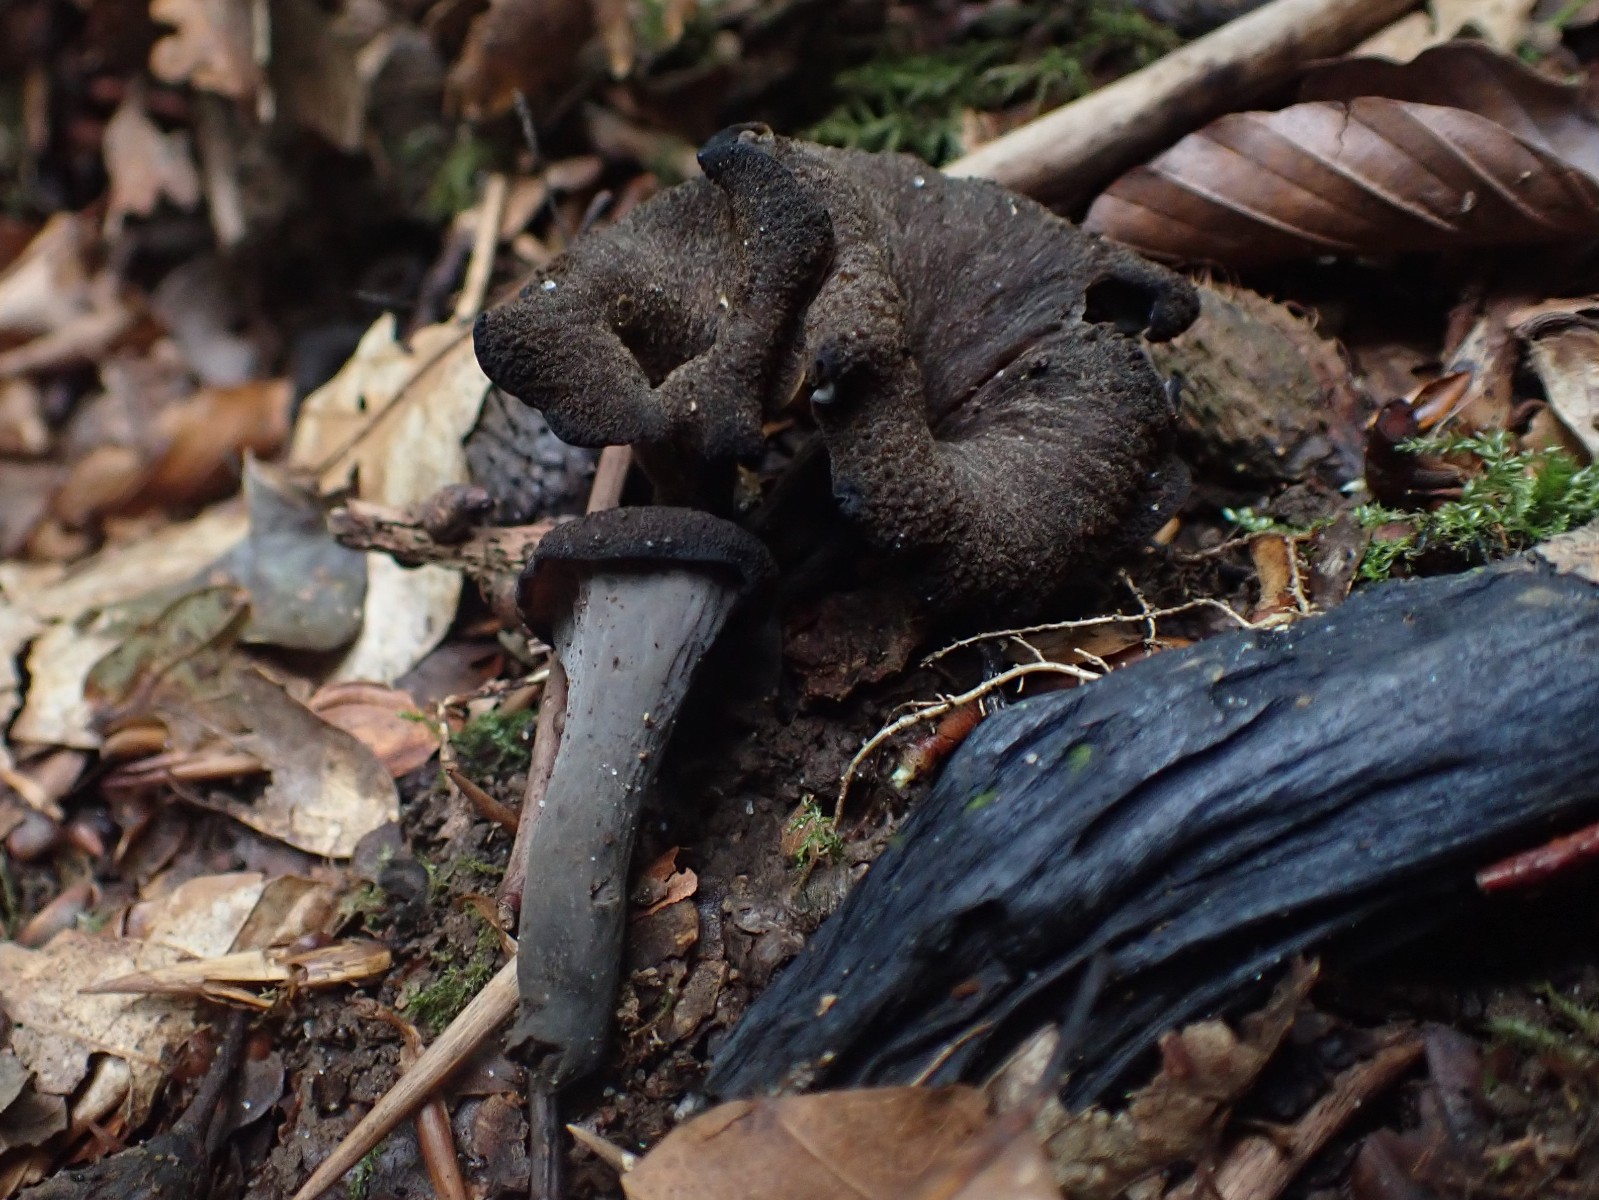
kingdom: Fungi
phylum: Basidiomycota
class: Agaricomycetes
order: Cantharellales
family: Hydnaceae
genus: Craterellus
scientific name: Craterellus cornucopioides
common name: trompetsvamp
